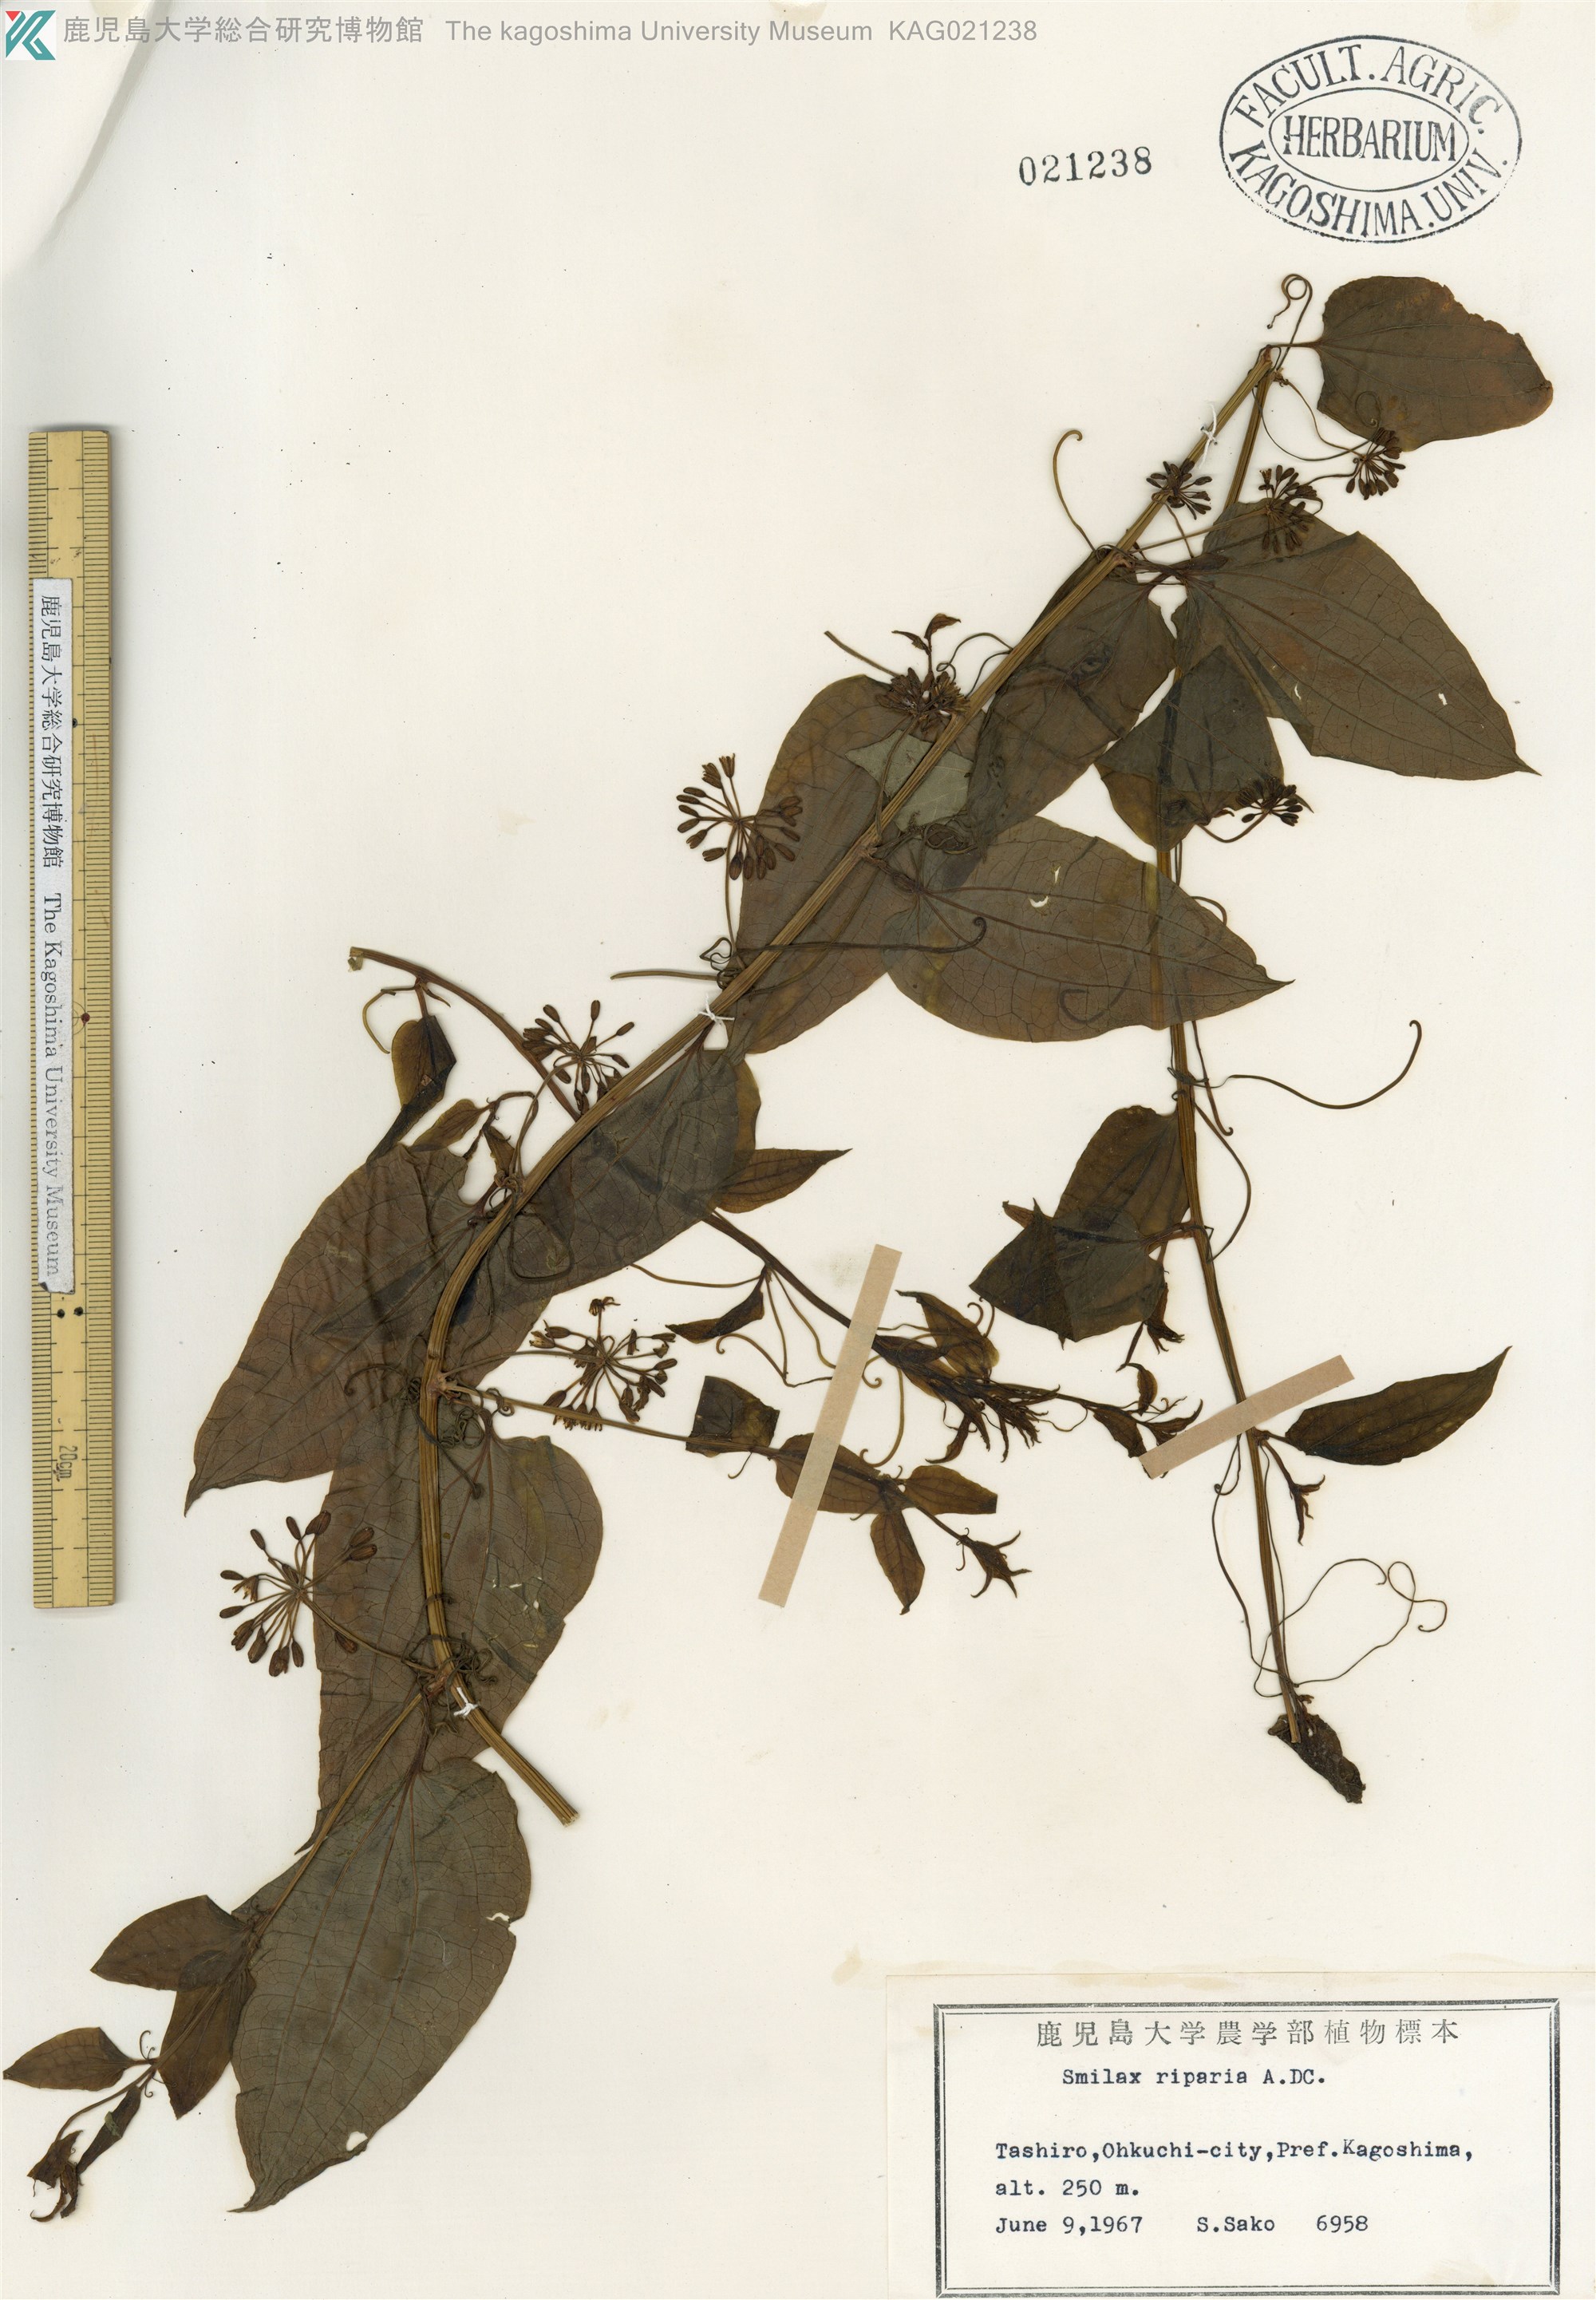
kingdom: Plantae
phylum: Tracheophyta
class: Liliopsida
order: Liliales
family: Smilacaceae
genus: Smilax
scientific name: Smilax riparia
